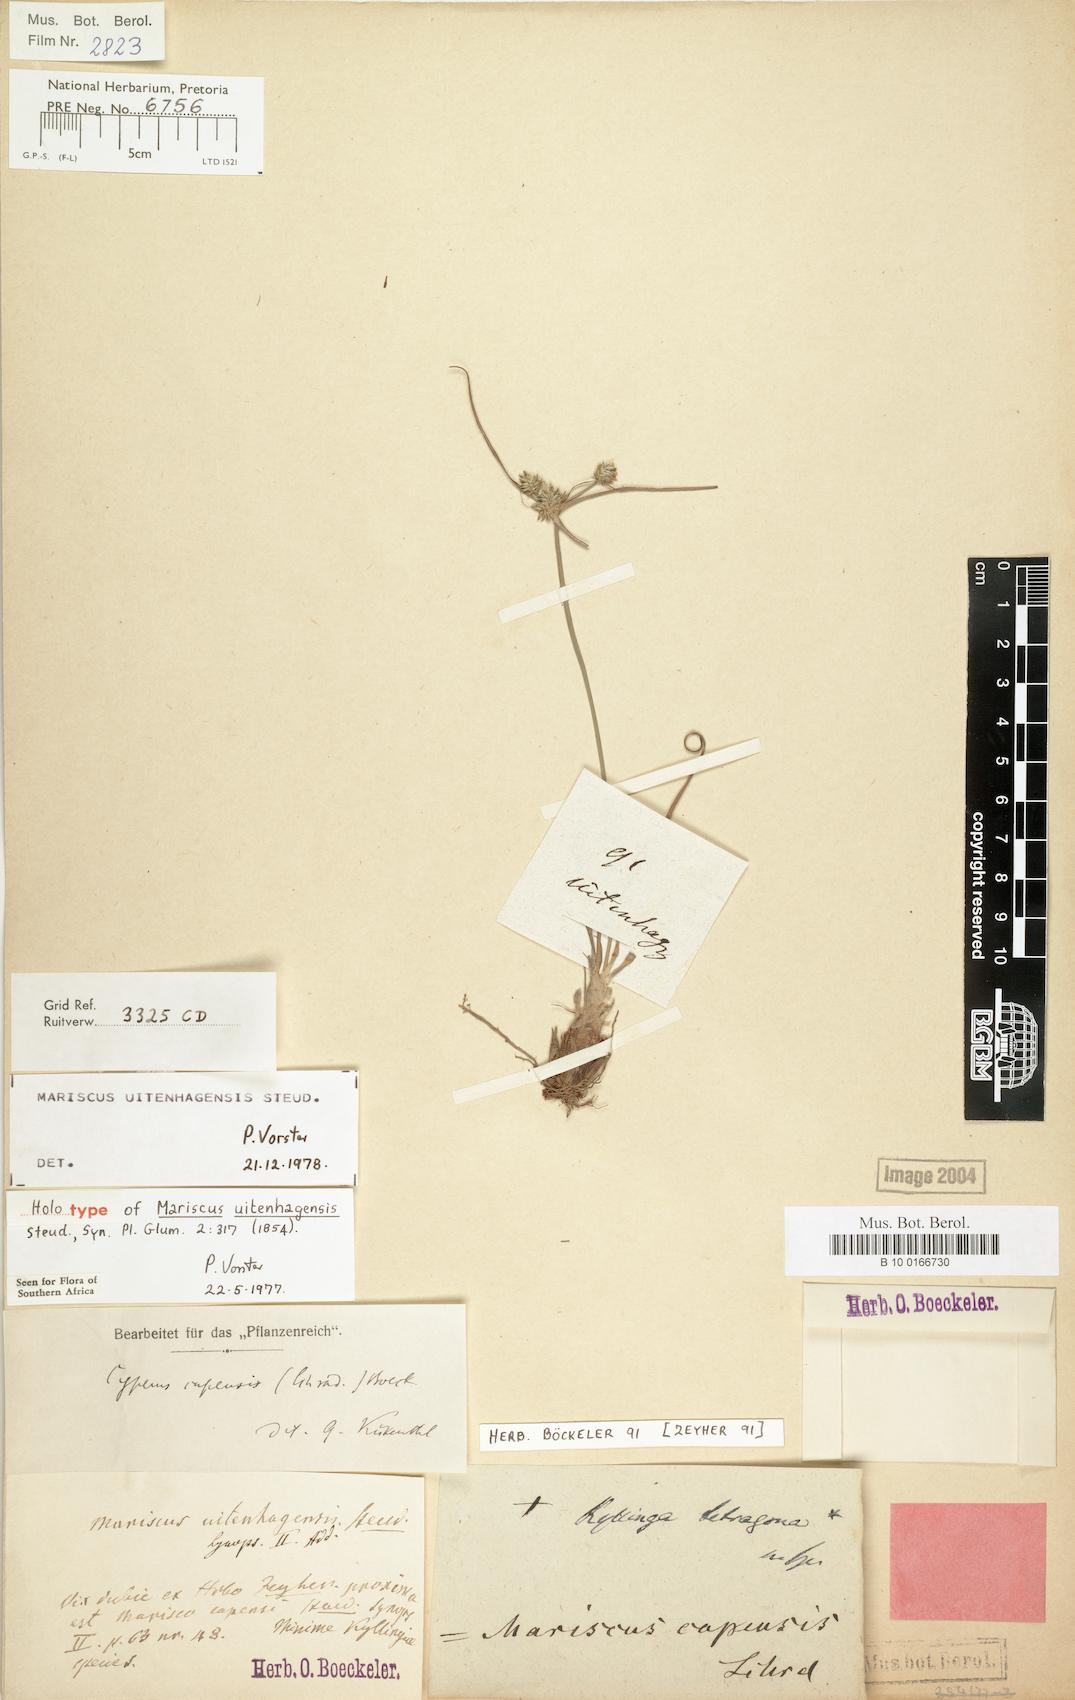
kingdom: Plantae
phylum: Tracheophyta
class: Liliopsida
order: Poales
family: Cyperaceae
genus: Cyperus
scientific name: Cyperus uitenhagensis
